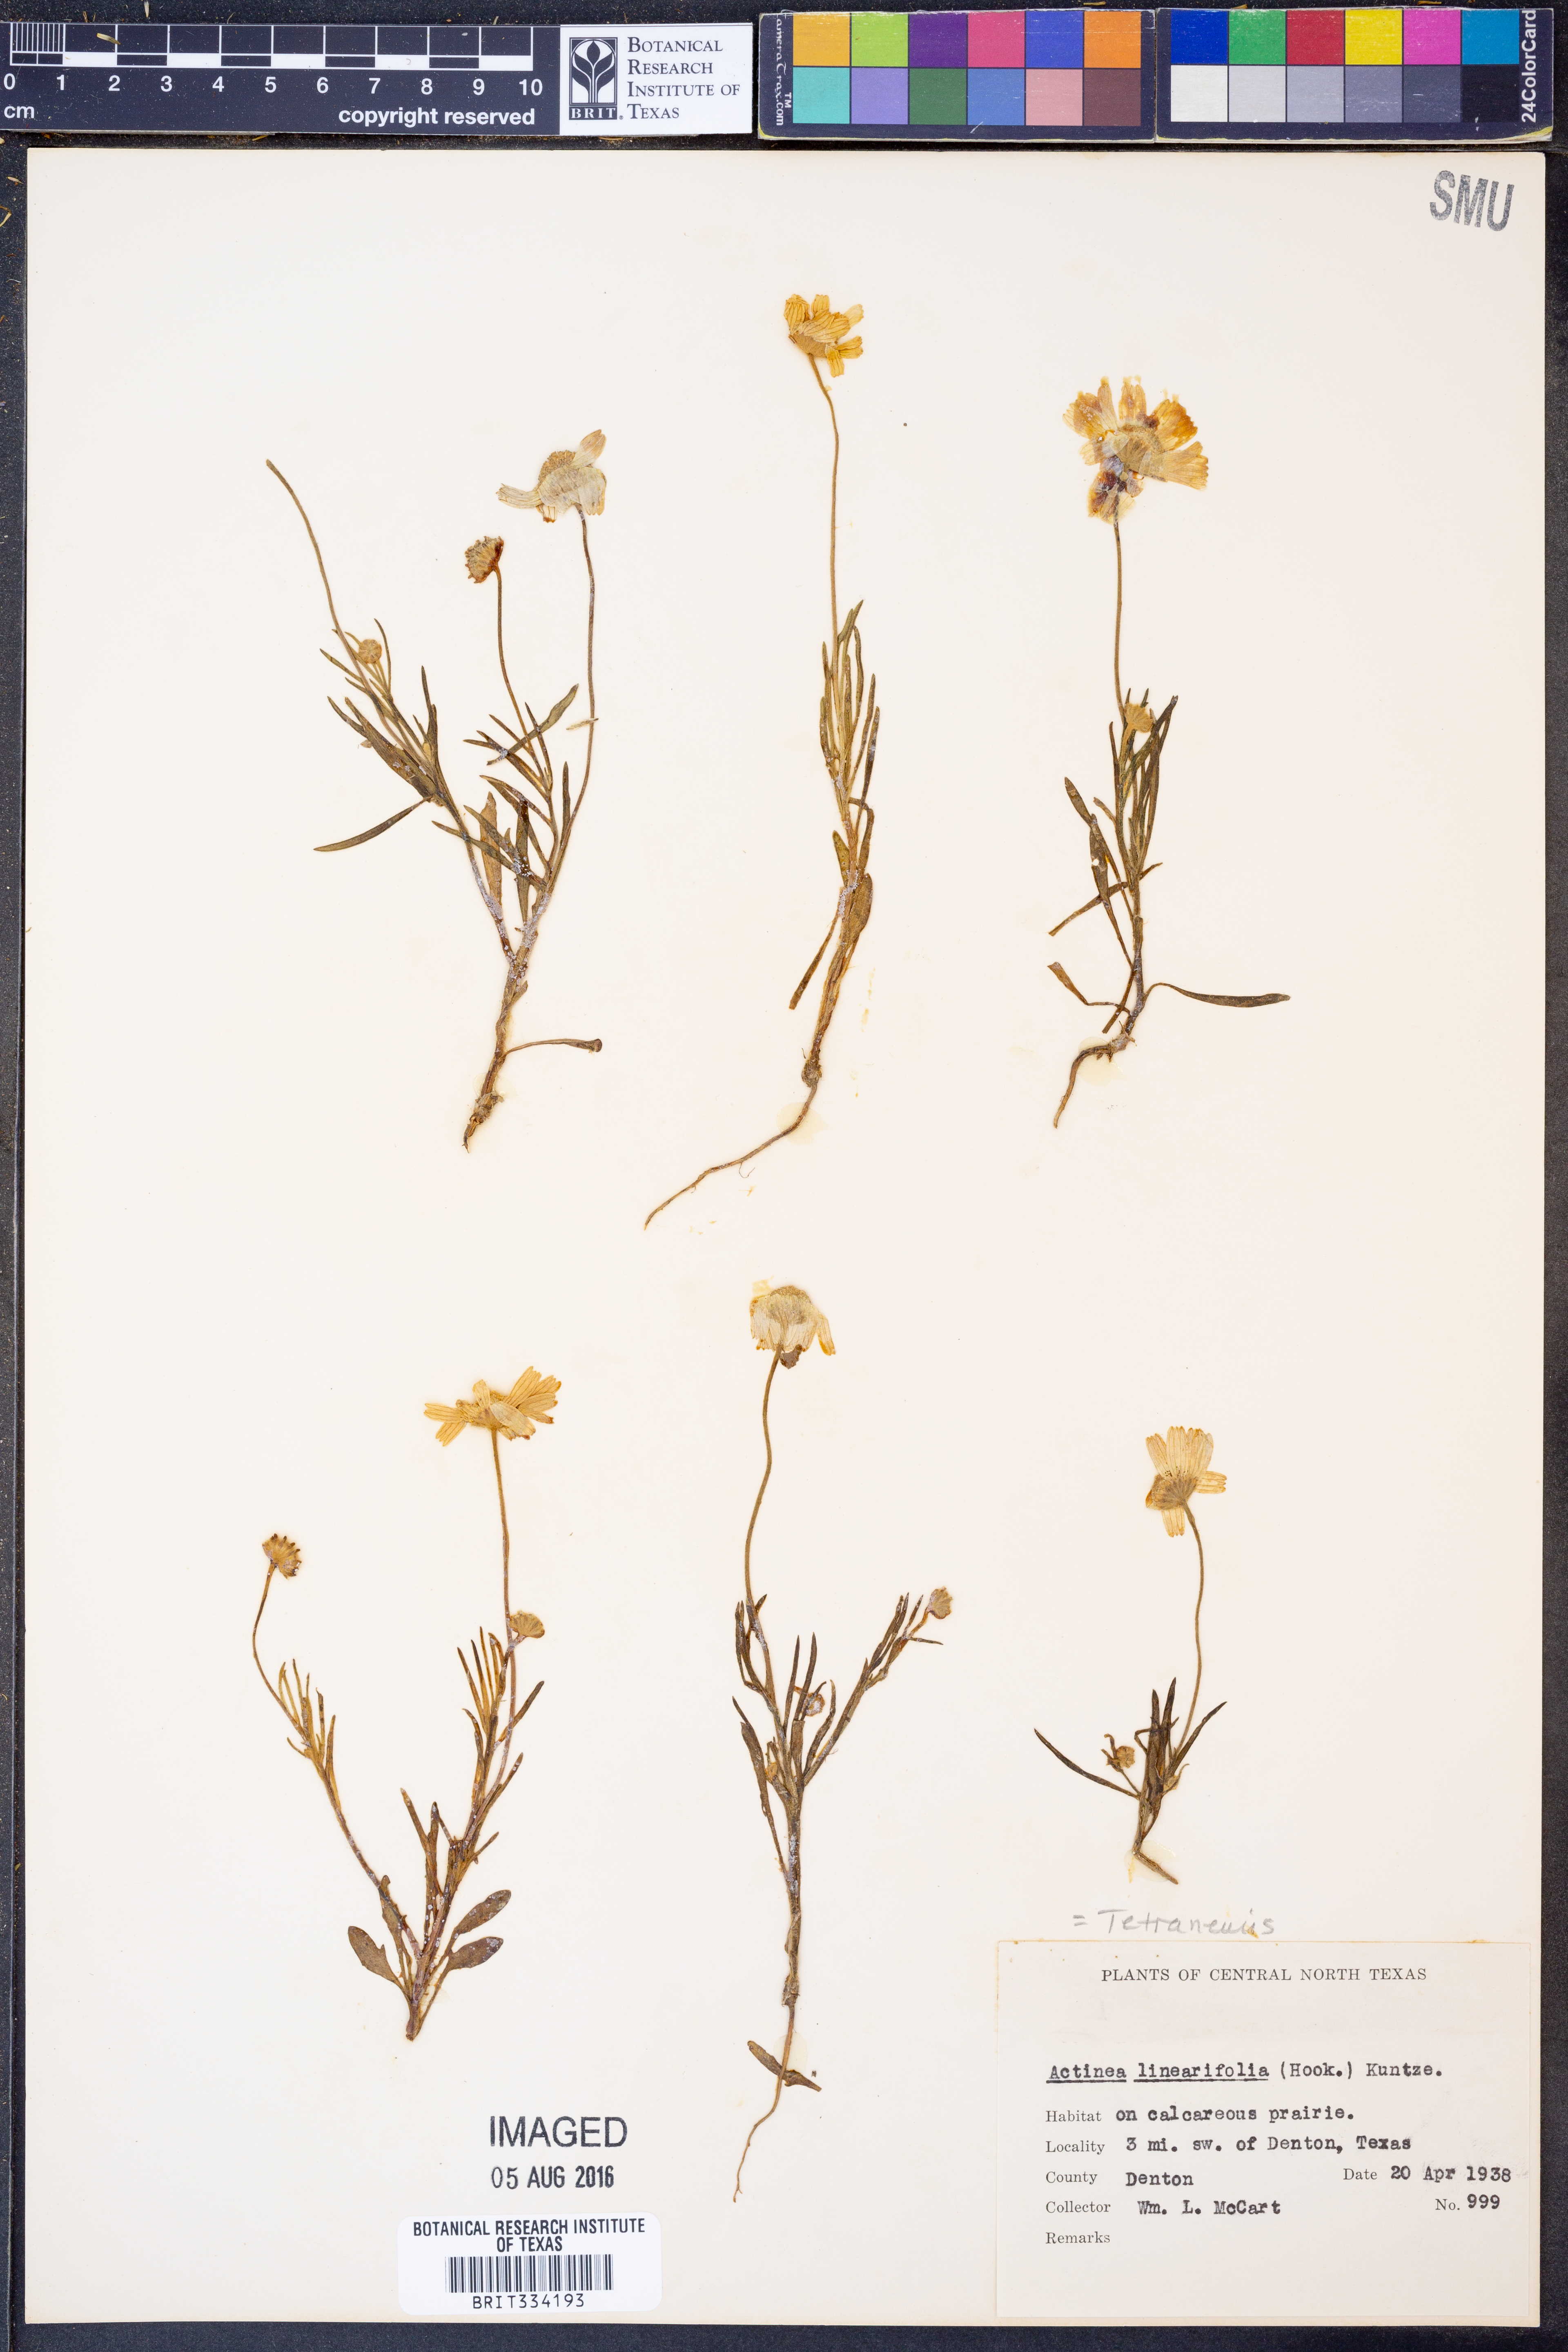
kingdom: Plantae
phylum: Tracheophyta
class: Magnoliopsida
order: Asterales
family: Asteraceae
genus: Tetraneuris
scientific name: Tetraneuris linearifolia
